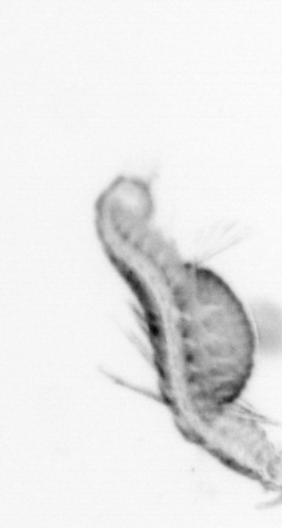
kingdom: Animalia
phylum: Annelida
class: Polychaeta
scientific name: Polychaeta
